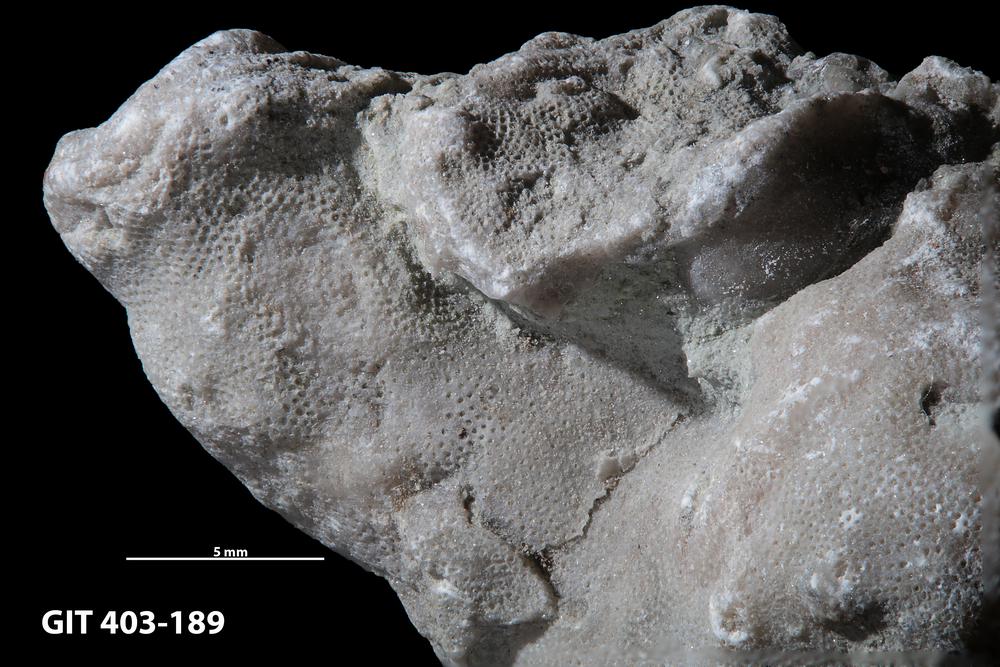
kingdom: Animalia
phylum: Bryozoa
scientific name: Bryozoa
